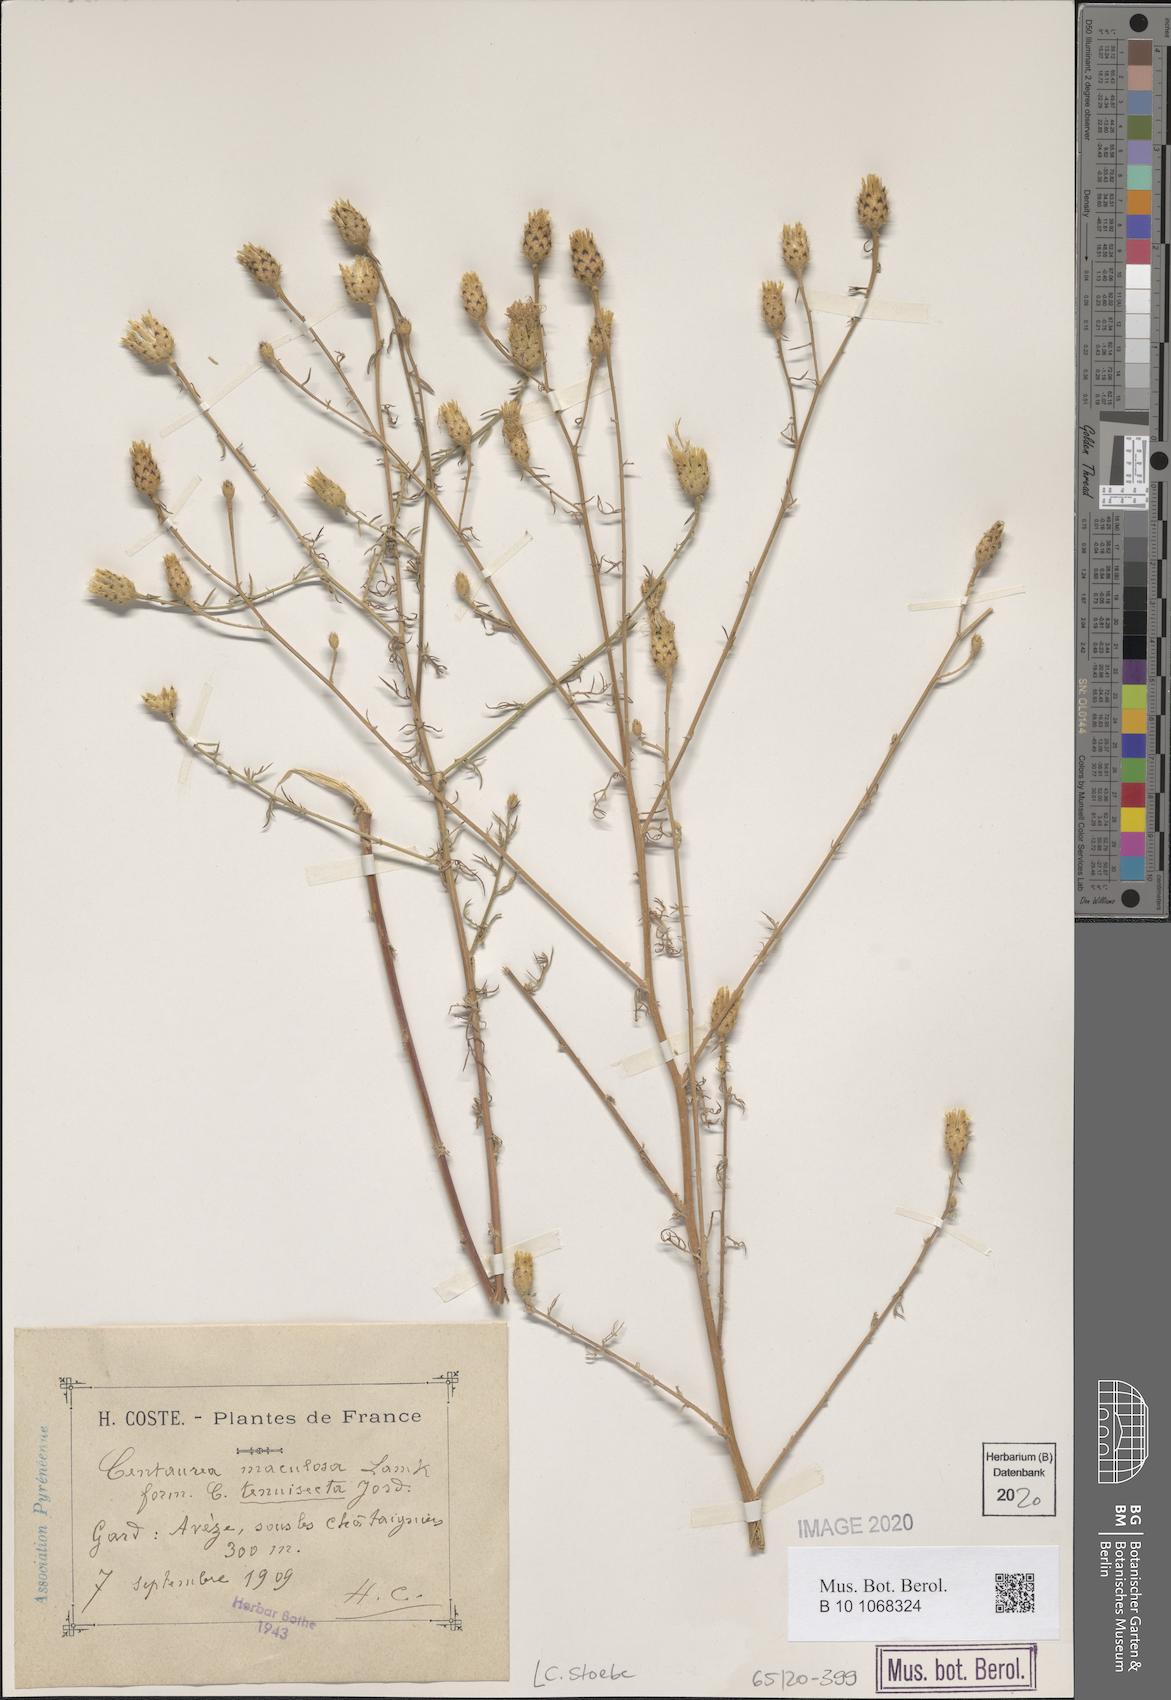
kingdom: Plantae
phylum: Tracheophyta
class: Magnoliopsida
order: Asterales
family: Asteraceae
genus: Centaurea
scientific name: Centaurea stoebe
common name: Spotted knapweed
